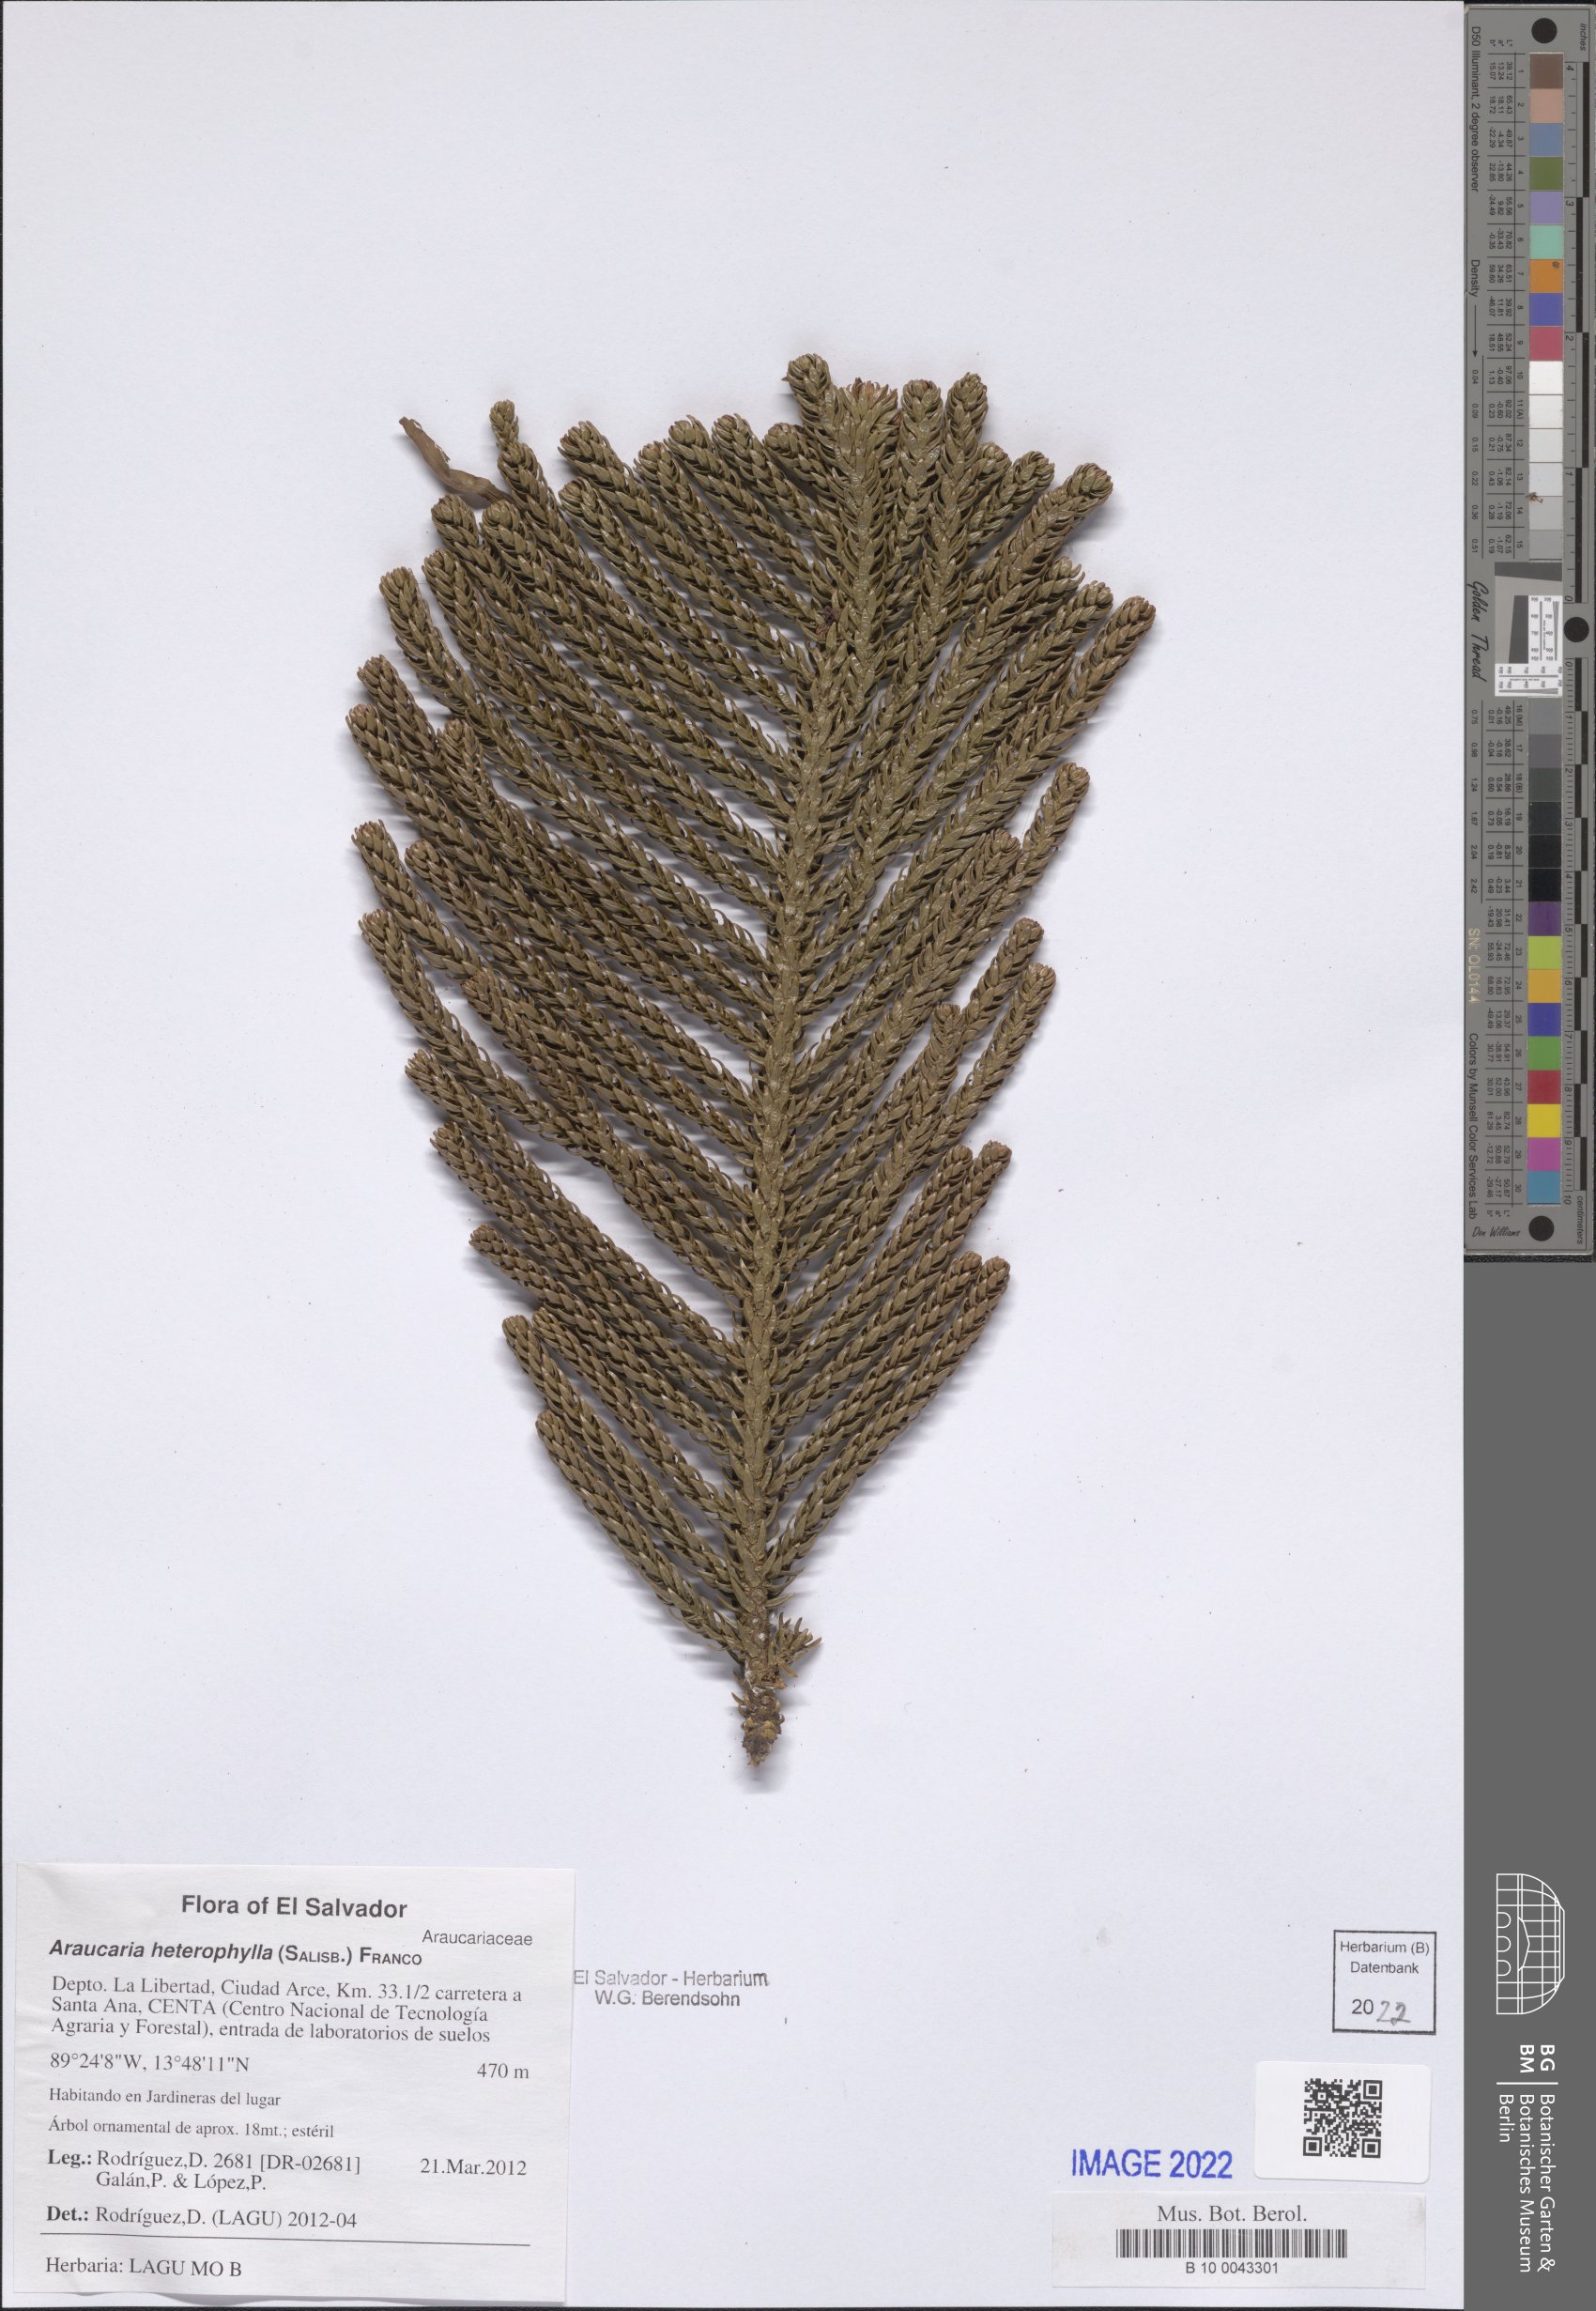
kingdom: Plantae
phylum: Tracheophyta
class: Pinopsida
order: Pinales
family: Araucariaceae
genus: Araucaria
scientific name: Araucaria heterophylla
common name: Norfolk island pine
